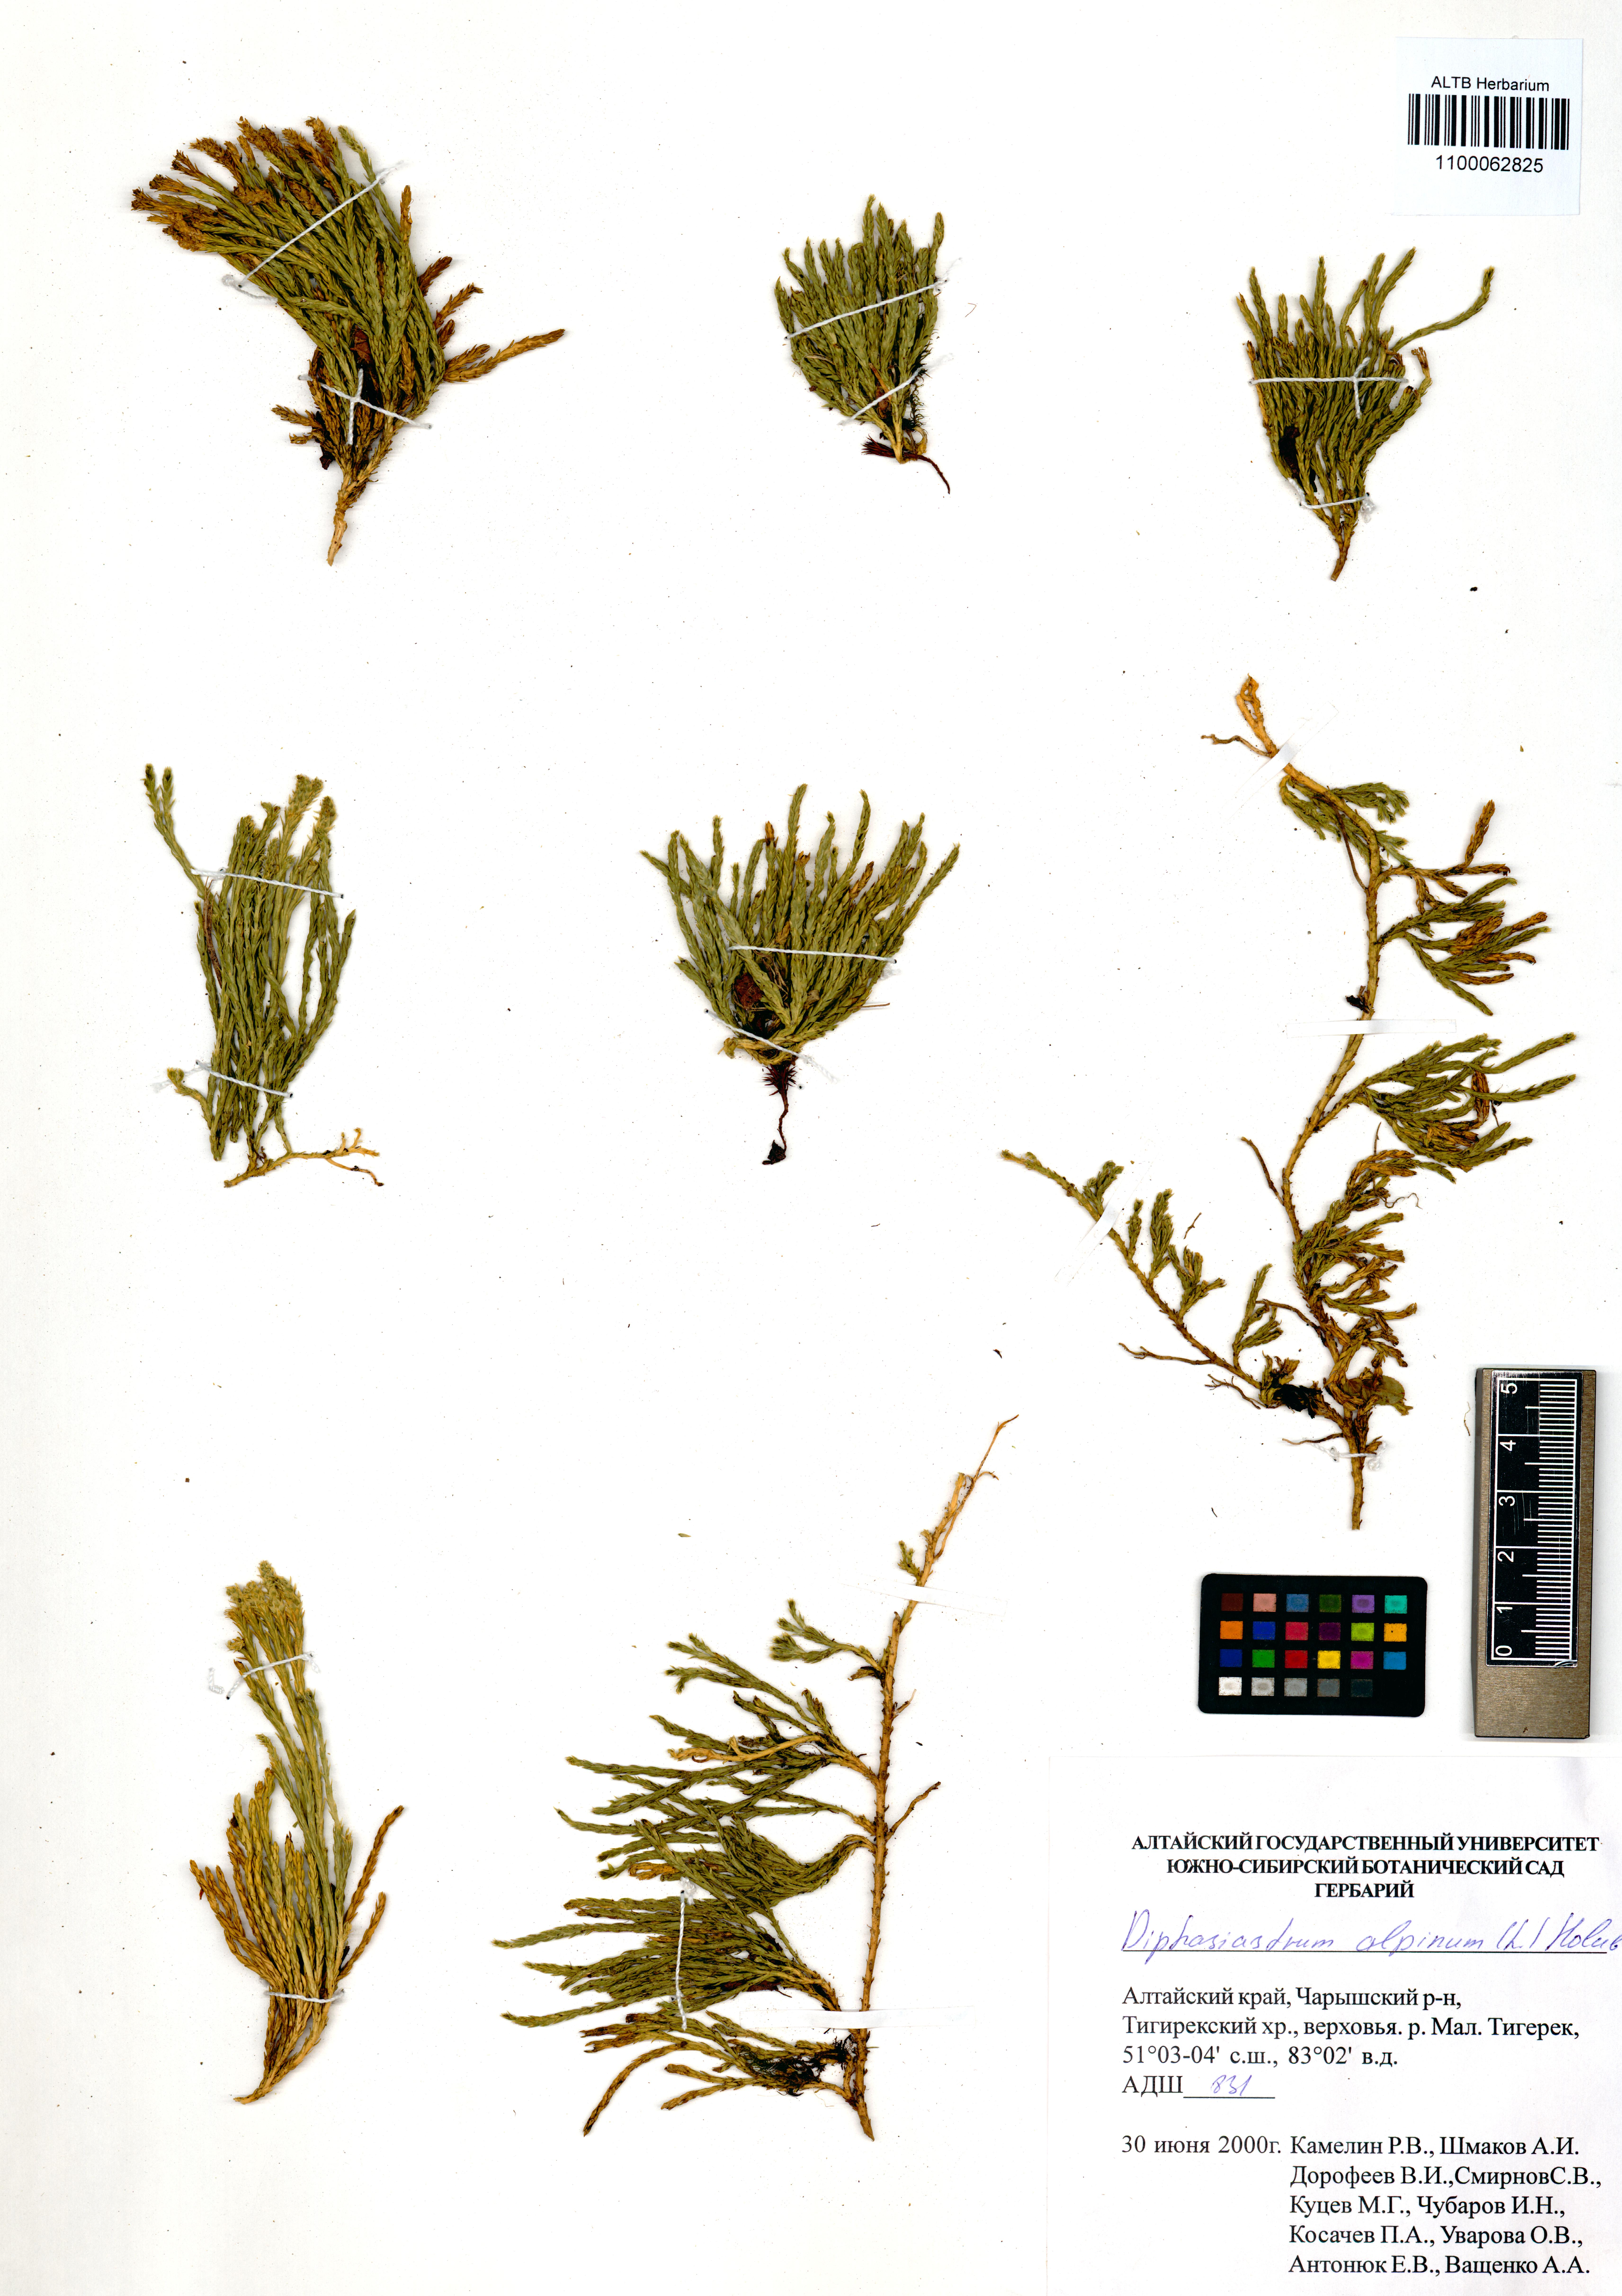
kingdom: Plantae
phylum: Tracheophyta
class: Lycopodiopsida
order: Lycopodiales
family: Lycopodiaceae
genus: Diphasiastrum
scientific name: Diphasiastrum alpinum
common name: Alpine clubmoss
